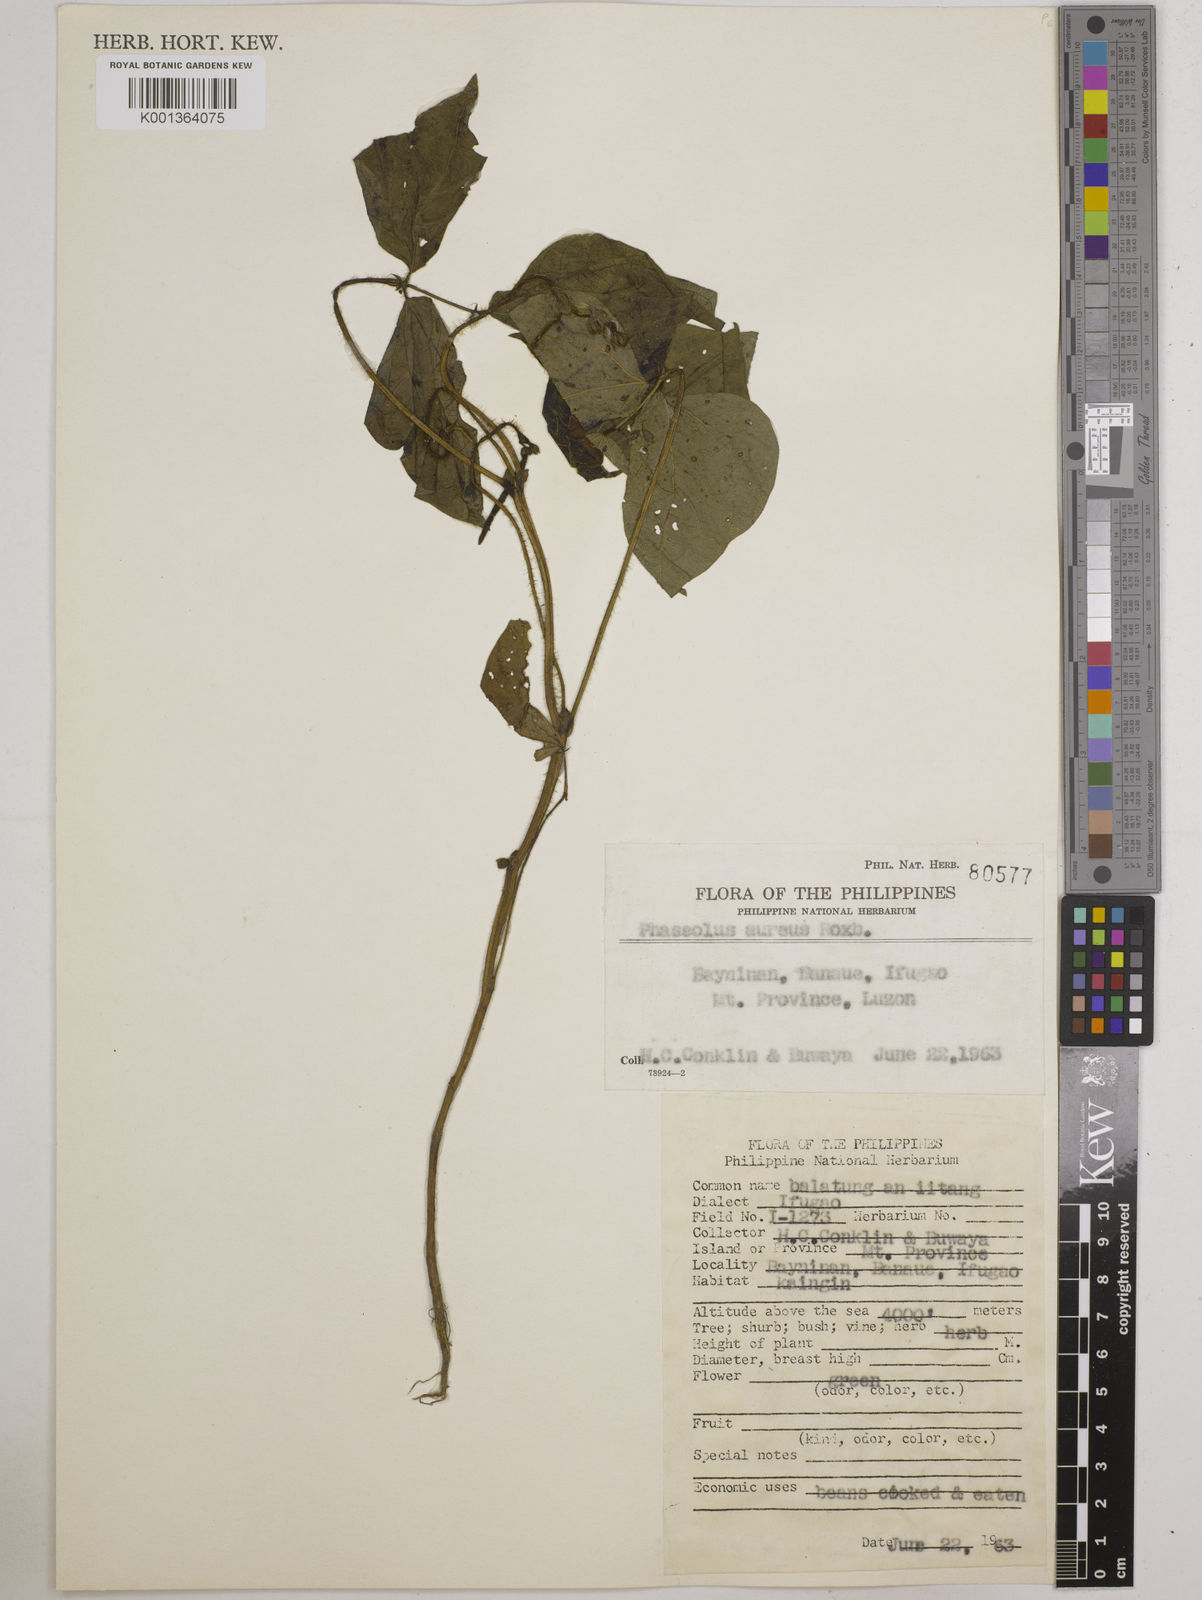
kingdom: Plantae
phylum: Tracheophyta
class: Magnoliopsida
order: Fabales
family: Fabaceae
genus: Vigna
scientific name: Vigna radiata
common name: Mung-bean
